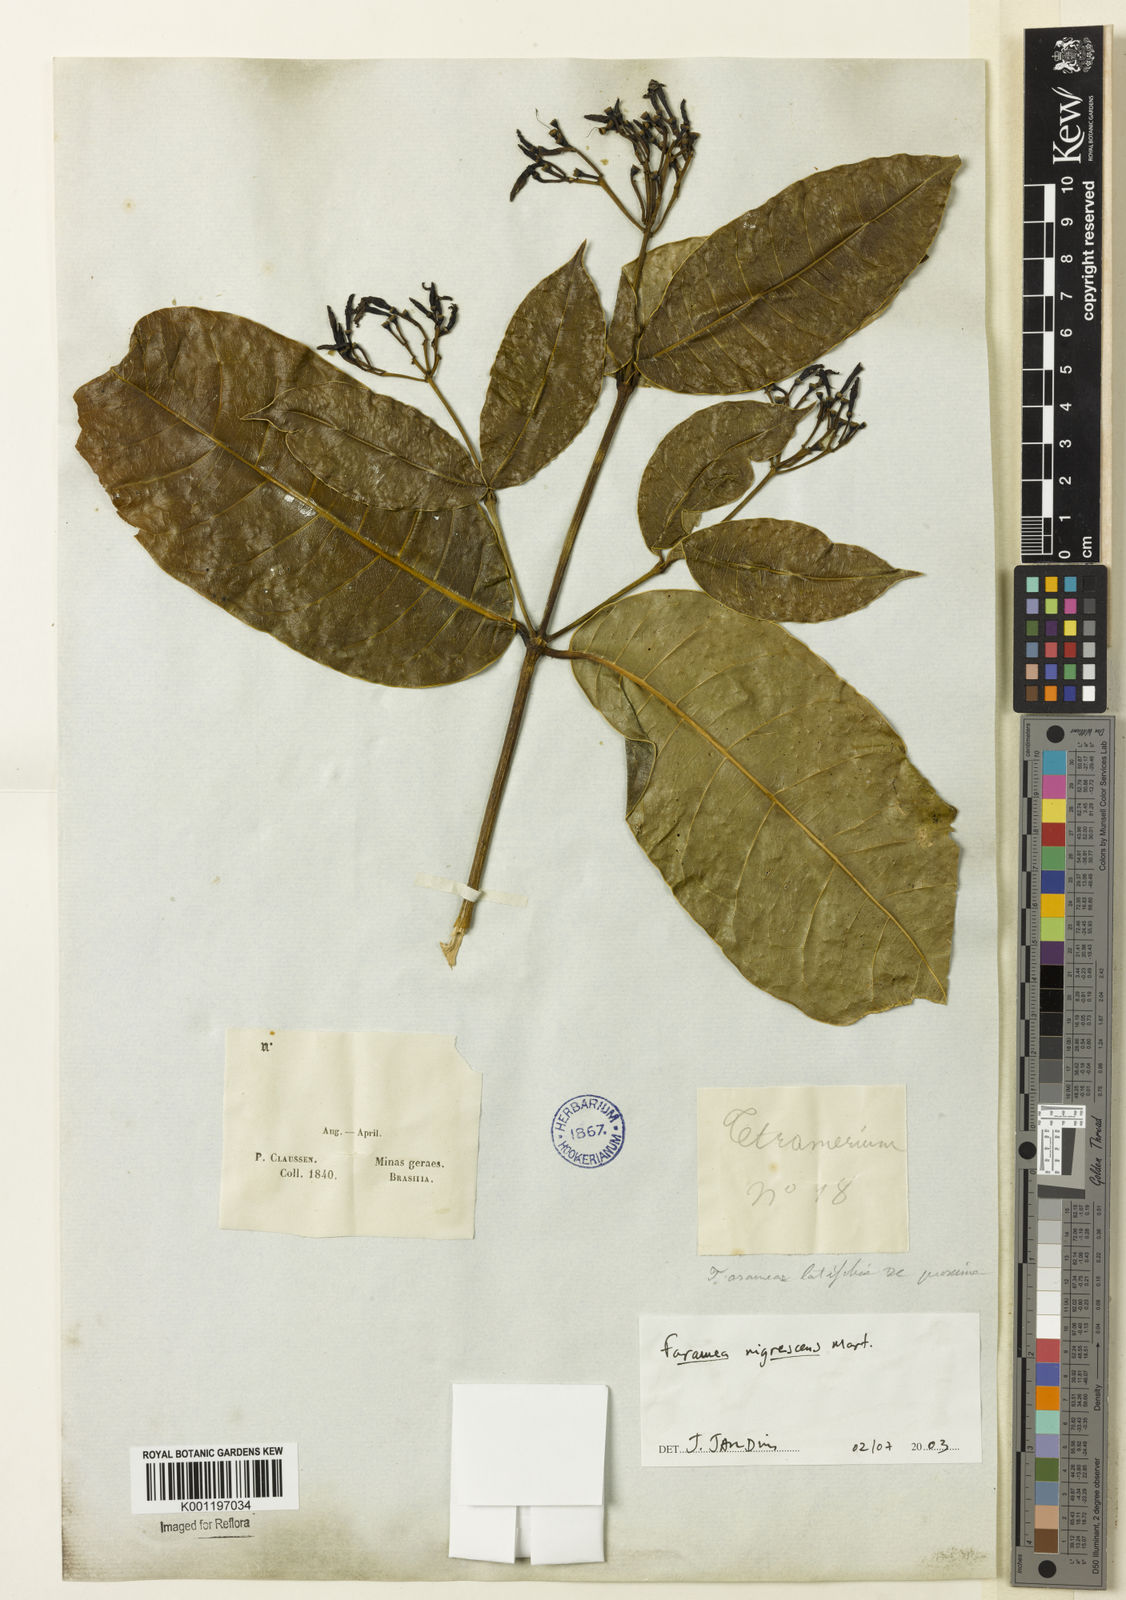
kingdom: Plantae
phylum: Tracheophyta
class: Magnoliopsida
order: Gentianales
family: Rubiaceae
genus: Faramea
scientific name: Faramea nigrescens
